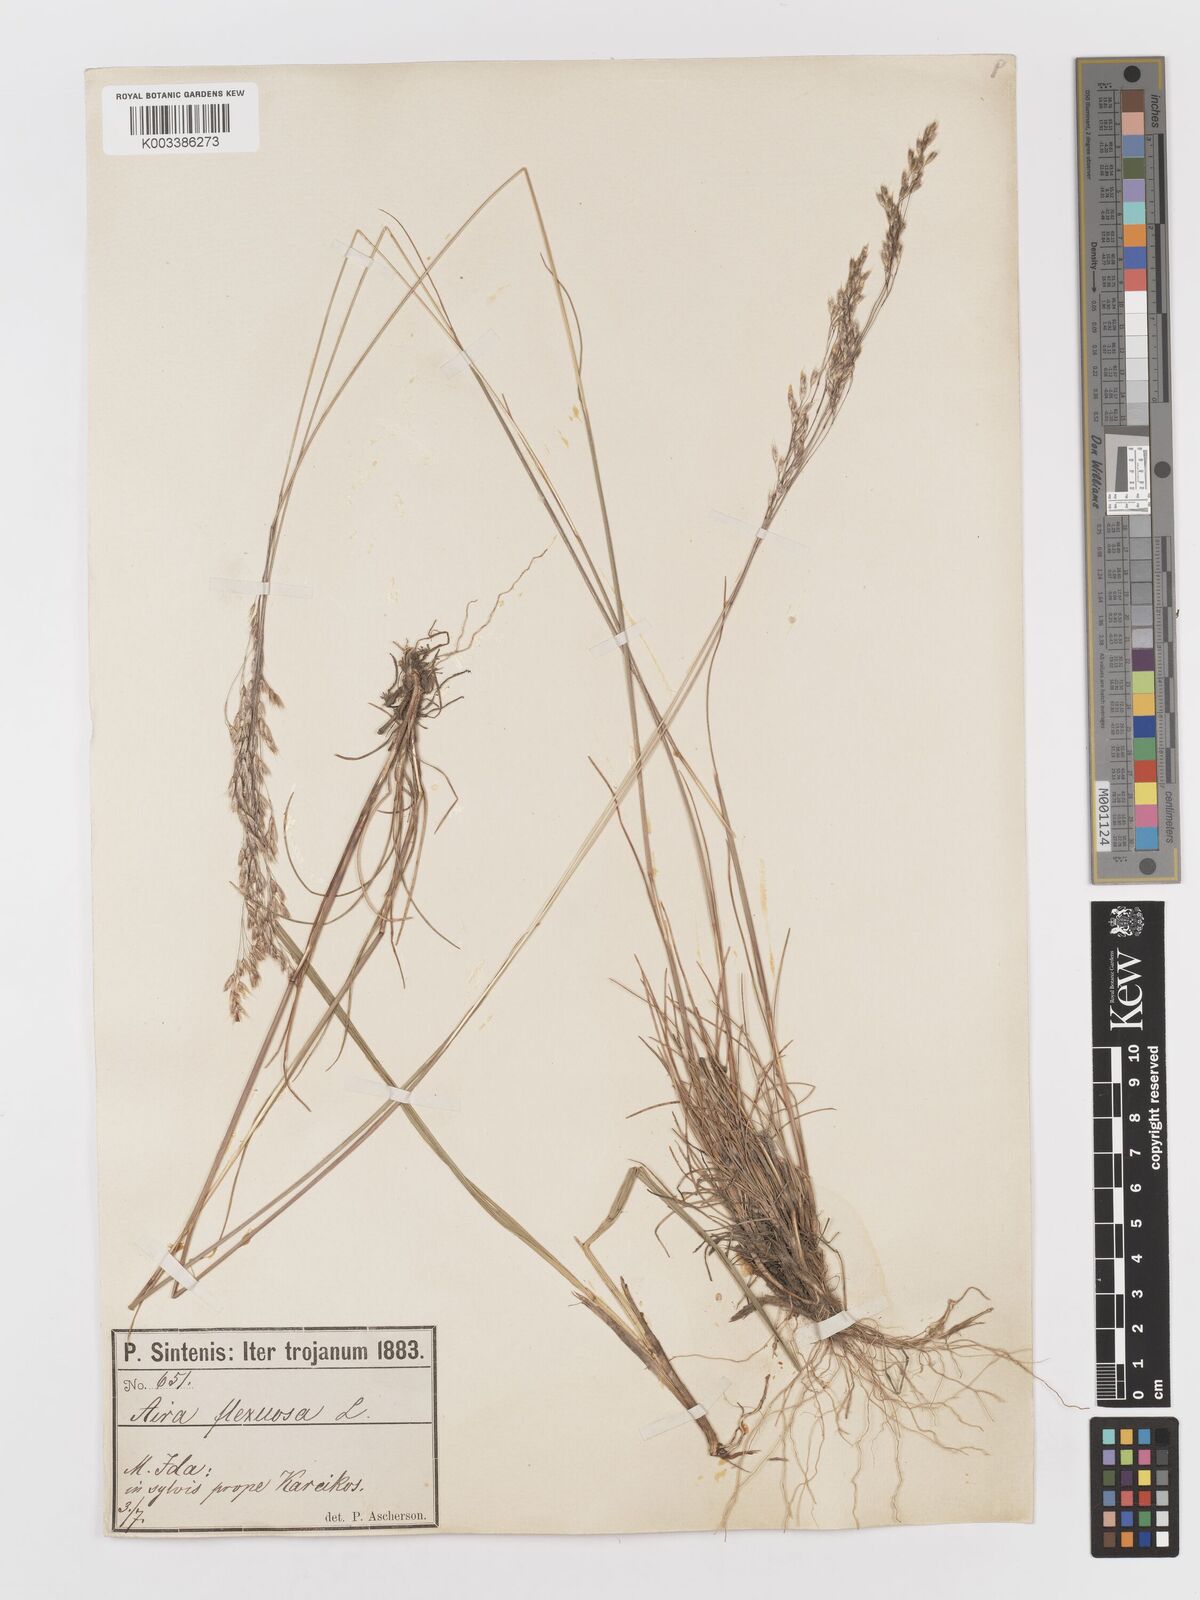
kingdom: Plantae
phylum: Tracheophyta
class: Liliopsida
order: Poales
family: Poaceae
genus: Avenella
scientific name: Avenella flexuosa
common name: Wavy hairgrass
